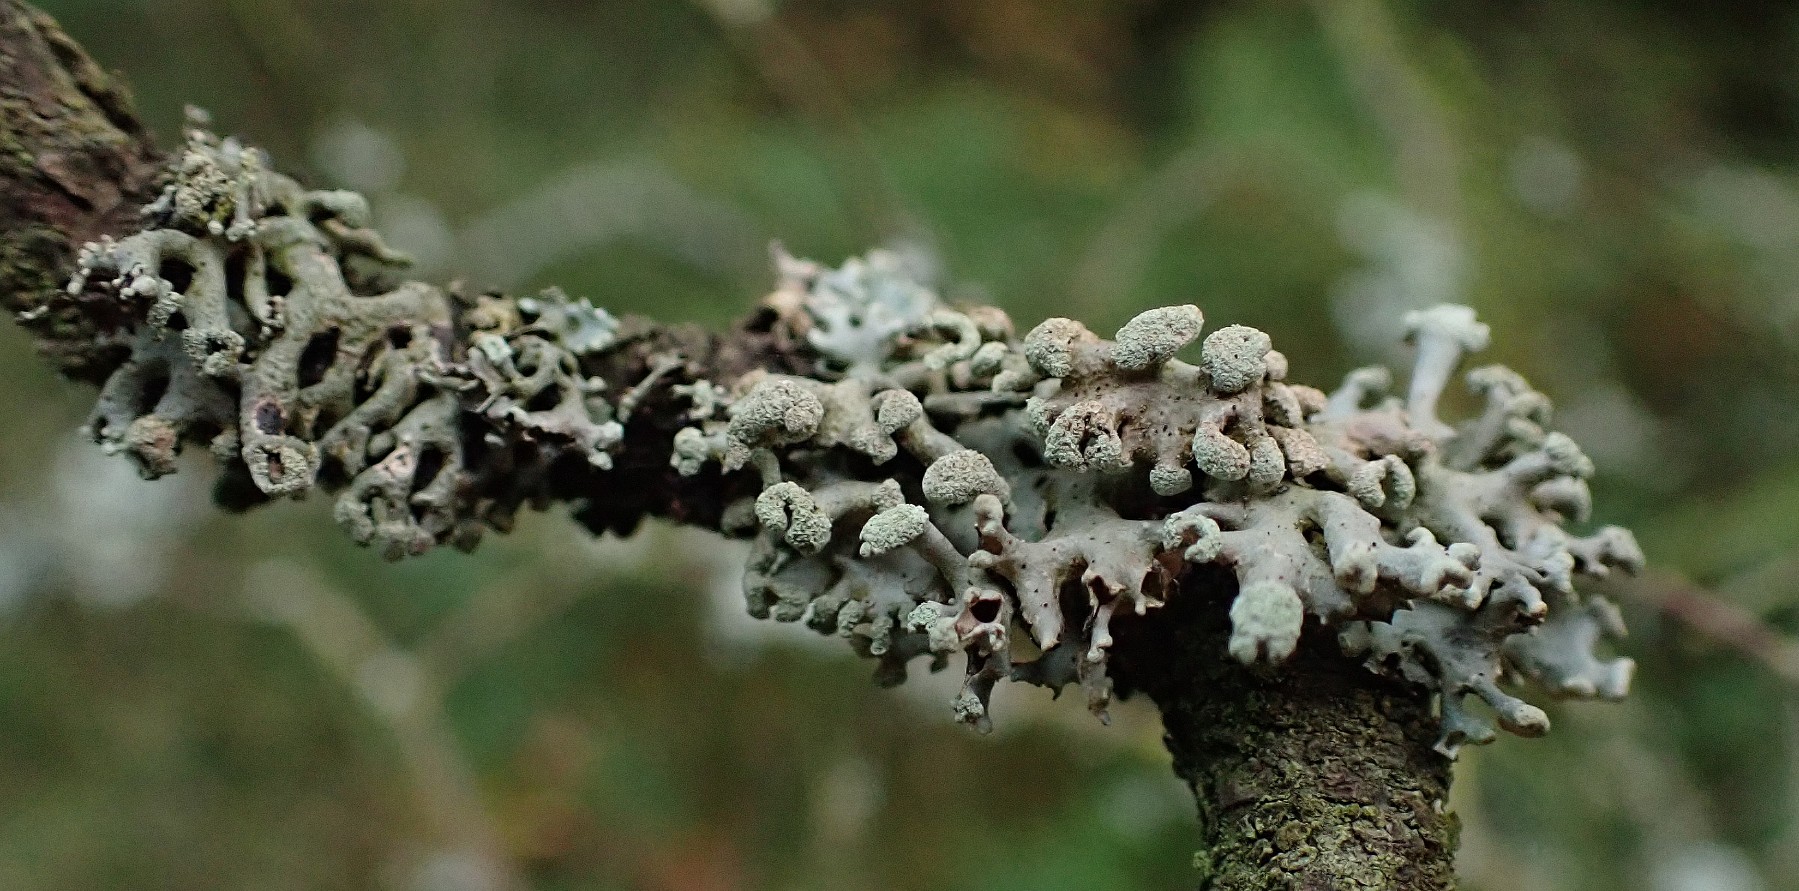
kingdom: Fungi
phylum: Ascomycota
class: Lecanoromycetes
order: Lecanorales
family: Parmeliaceae
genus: Hypogymnia
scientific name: Hypogymnia tubulosa
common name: finger-kvistlav
